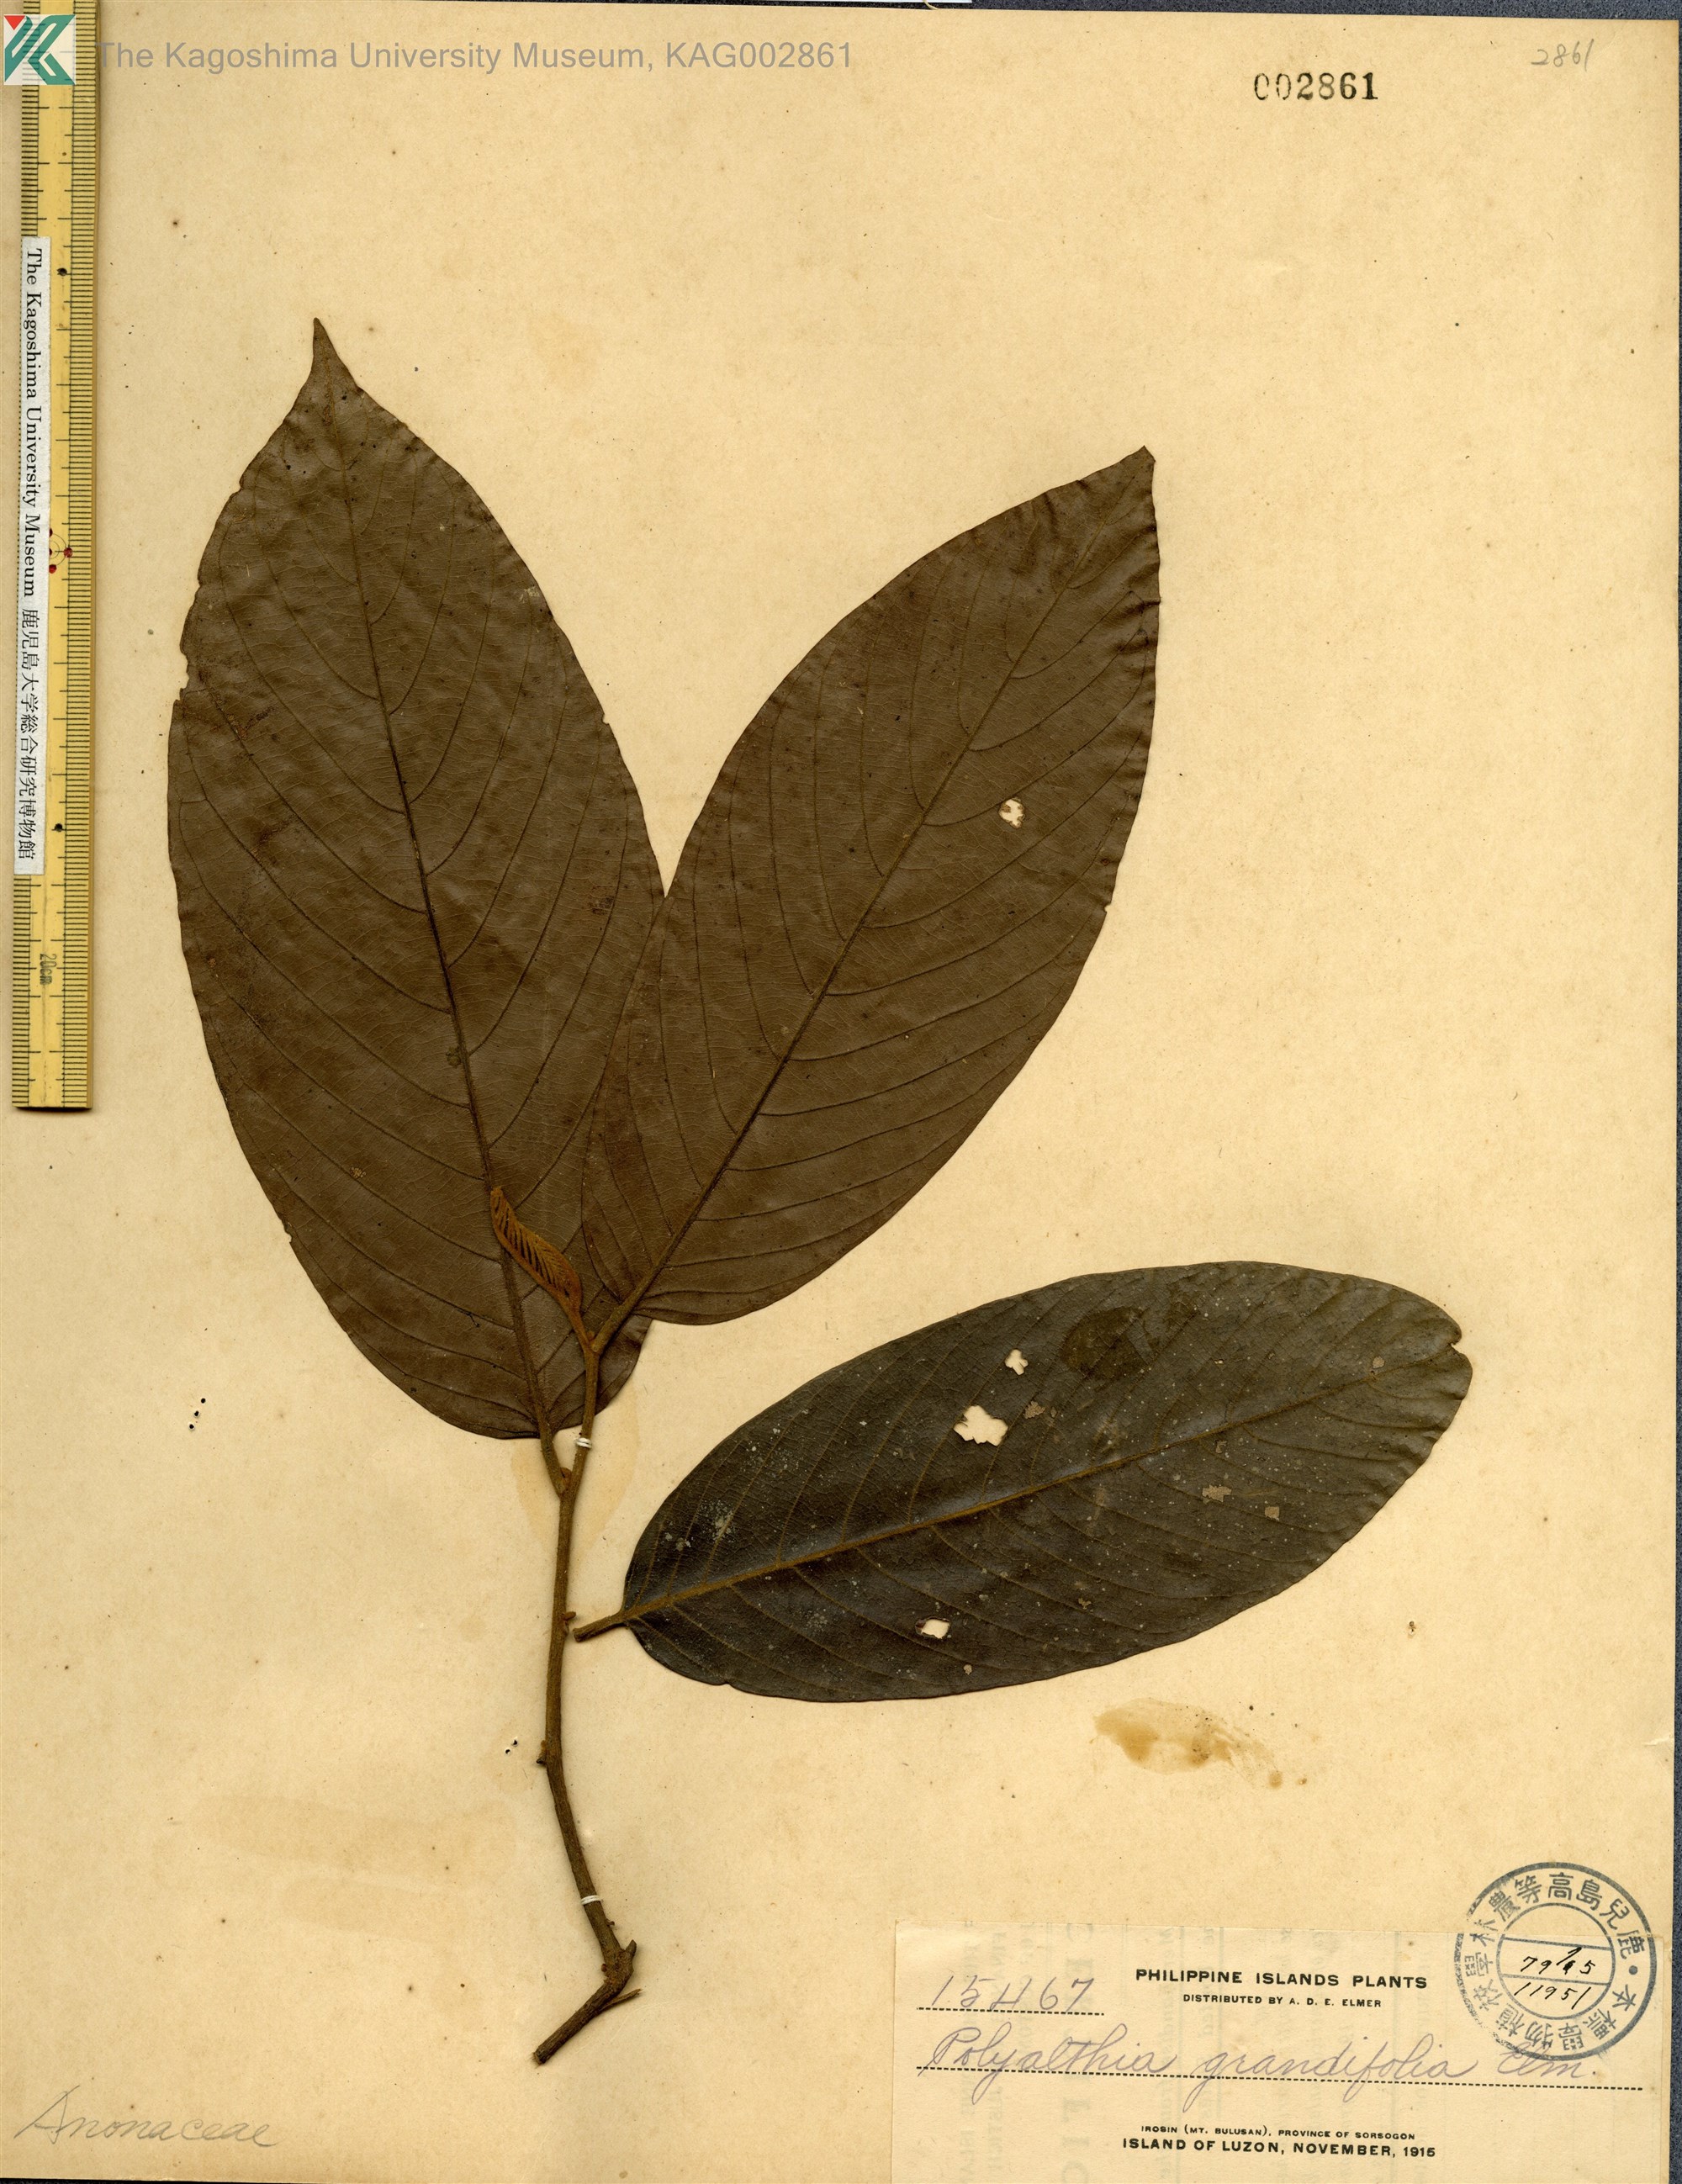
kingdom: Plantae
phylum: Tracheophyta
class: Magnoliopsida
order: Magnoliales
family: Annonaceae
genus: Enicosanthum
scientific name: Enicosanthum grandifolium
